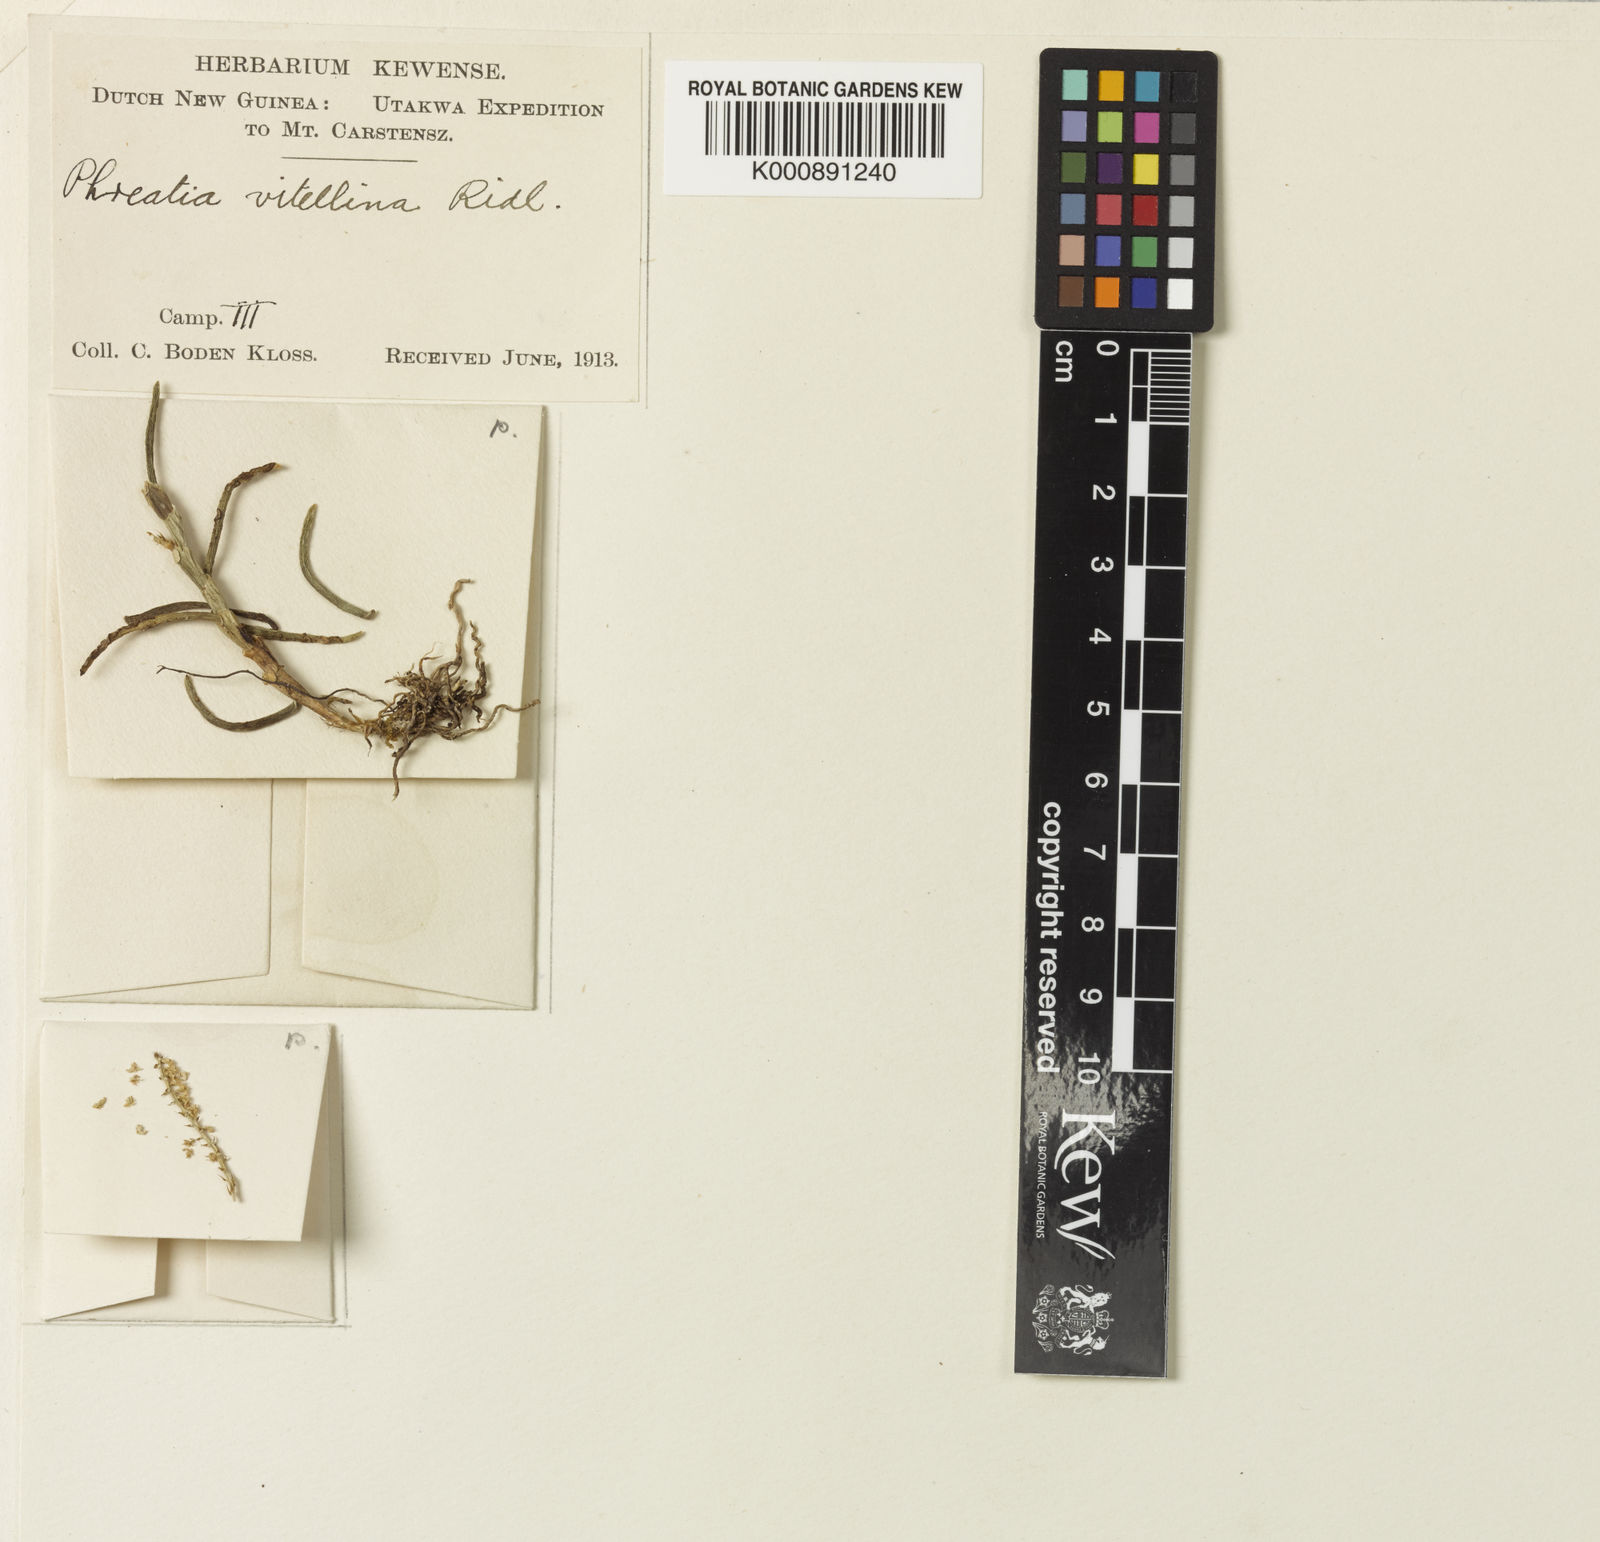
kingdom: Plantae
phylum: Tracheophyta
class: Liliopsida
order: Asparagales
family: Orchidaceae
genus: Octarrhena
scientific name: Octarrhena vitellina
